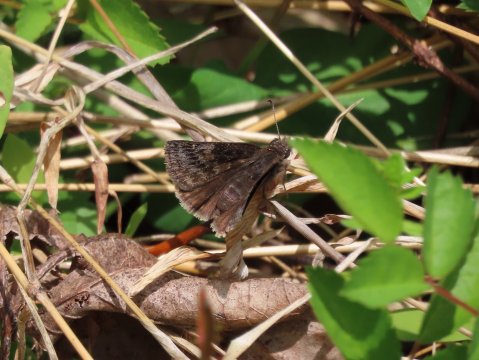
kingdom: Animalia
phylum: Arthropoda
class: Insecta
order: Lepidoptera
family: Hesperiidae
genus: Gesta
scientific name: Gesta
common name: Wild Indigo Duskywing
